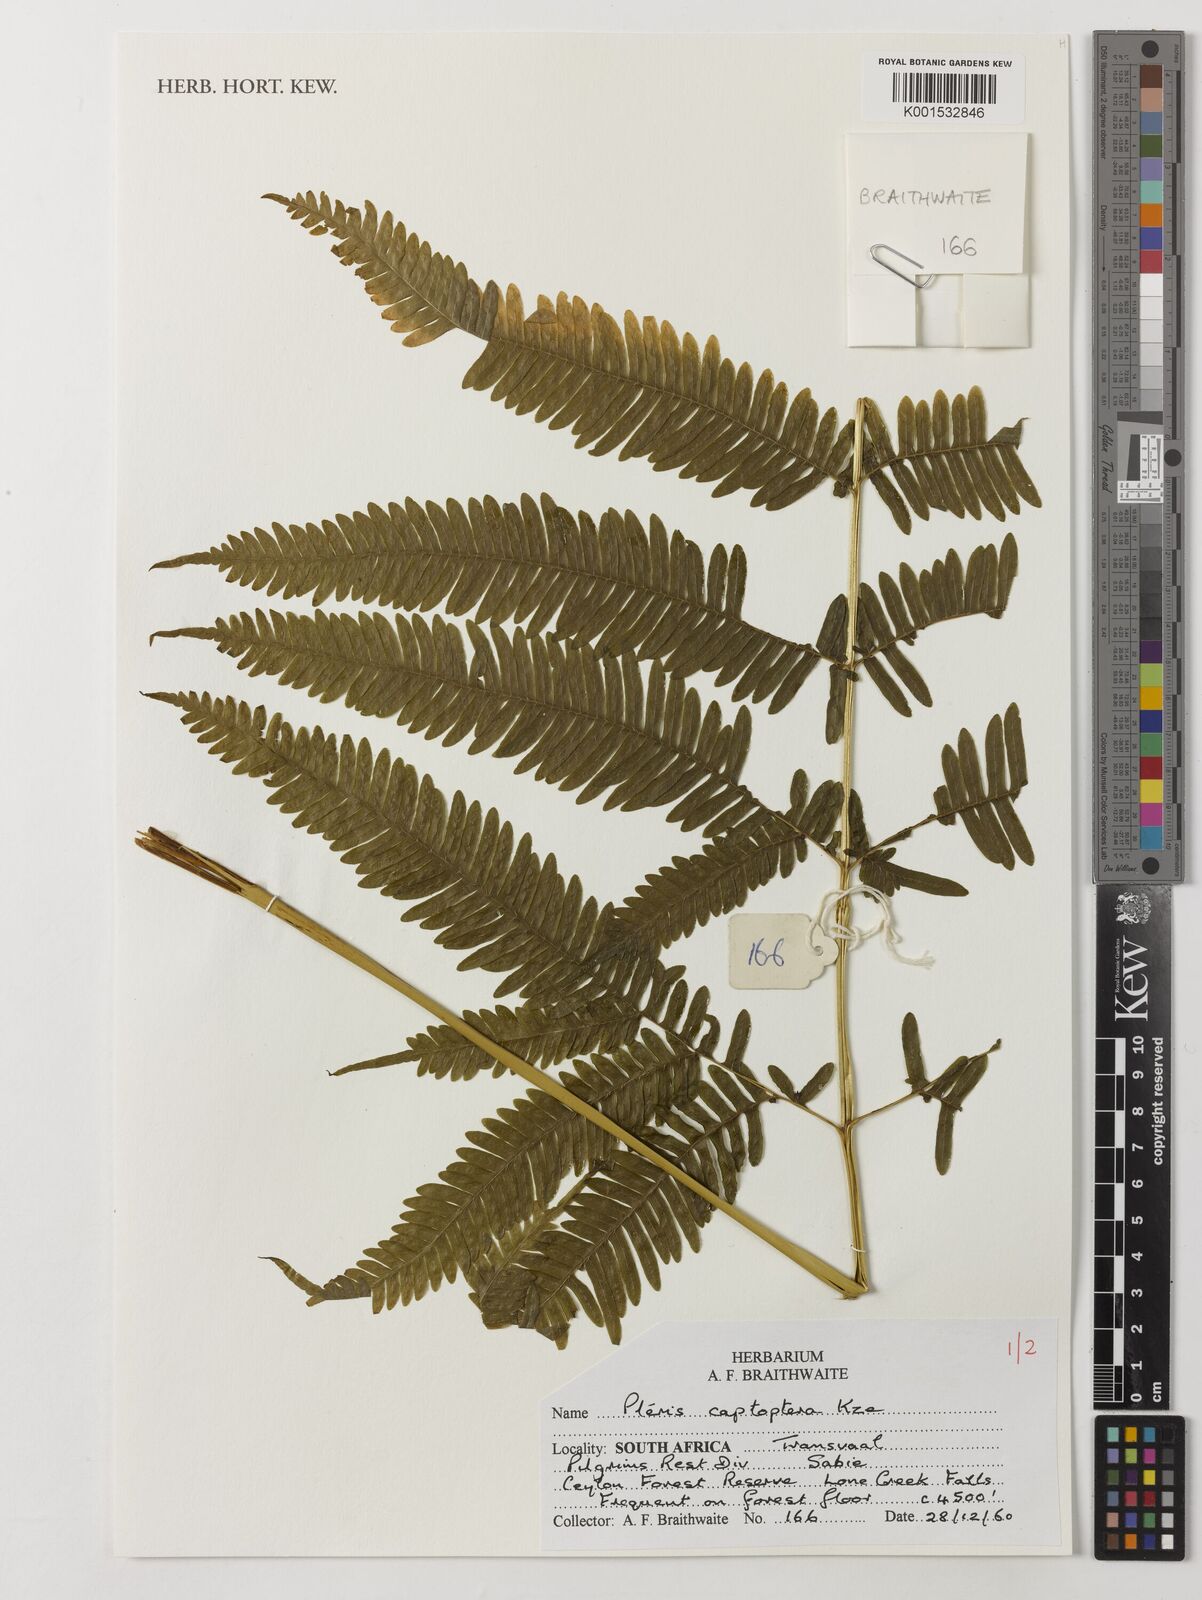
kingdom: Plantae
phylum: Tracheophyta
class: Polypodiopsida
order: Polypodiales
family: Pteridaceae
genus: Pteris
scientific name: Pteris catoptera
